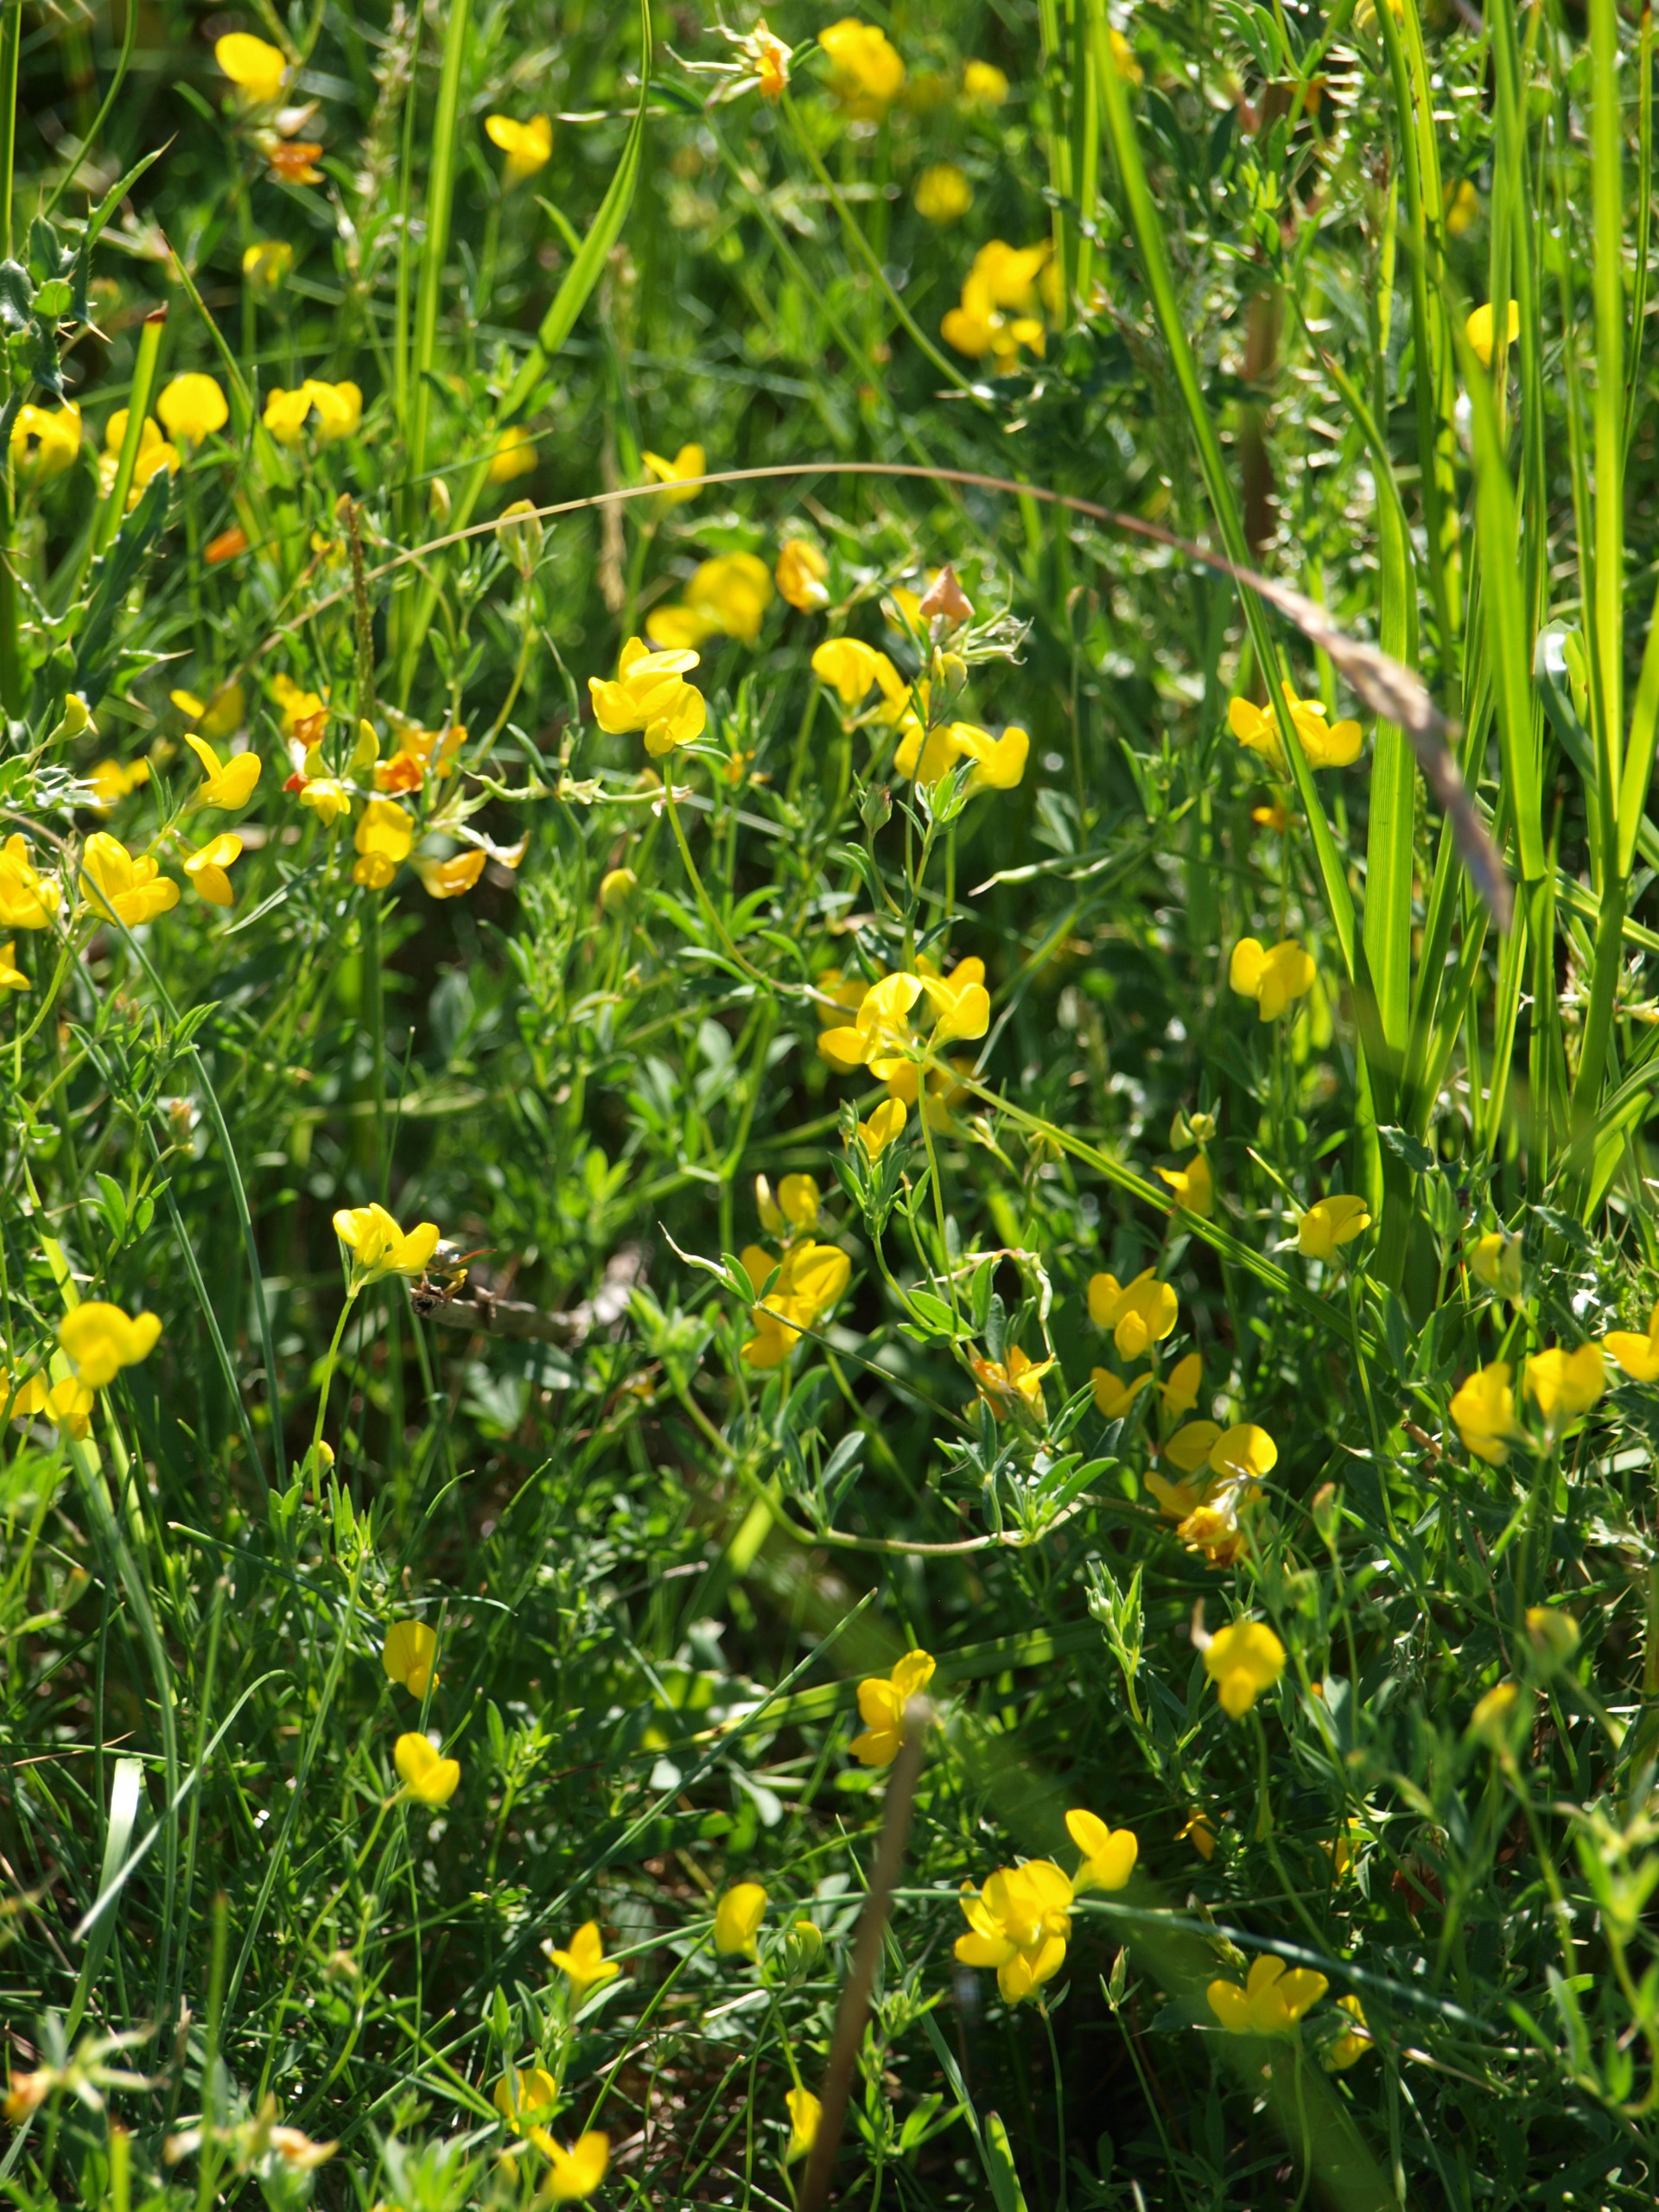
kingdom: Plantae
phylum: Tracheophyta
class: Magnoliopsida
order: Fabales
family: Fabaceae
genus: Lotus
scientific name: Lotus corniculatus
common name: Almindelig kællingetand
